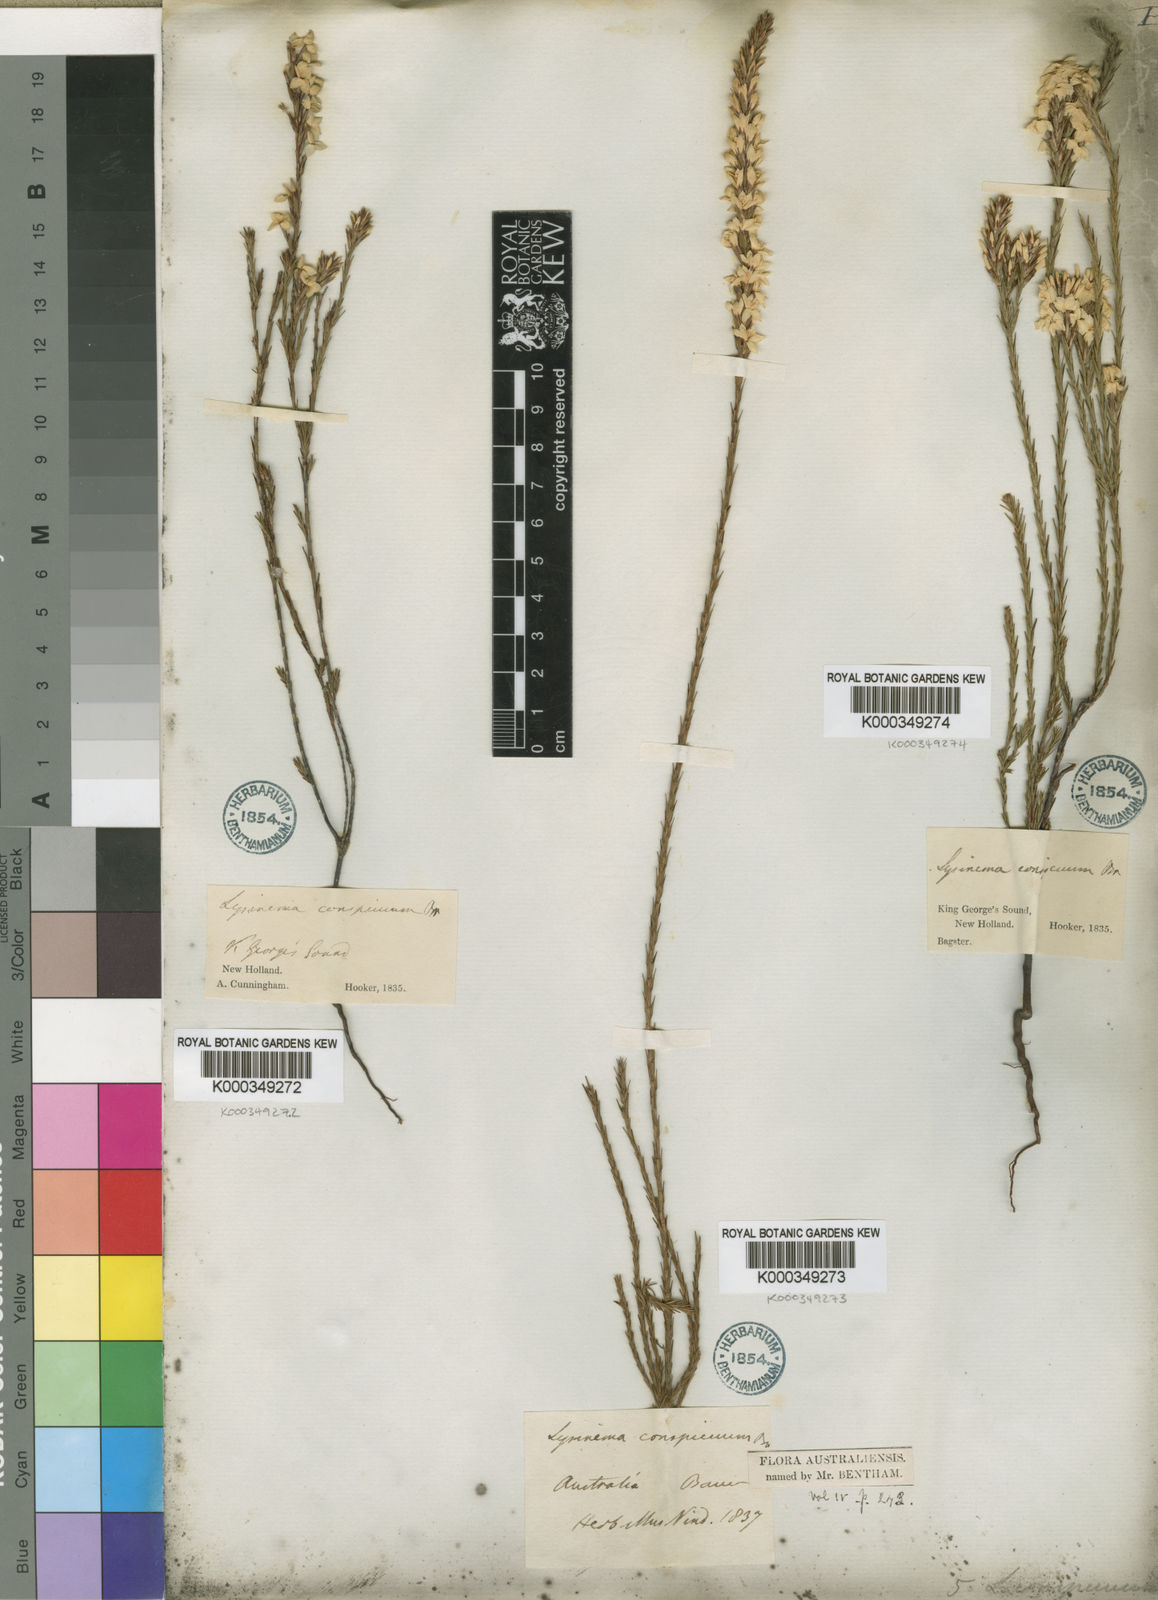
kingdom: Plantae
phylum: Tracheophyta
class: Magnoliopsida
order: Ericales
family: Ericaceae
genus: Lysinema
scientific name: Lysinema conspicuum
